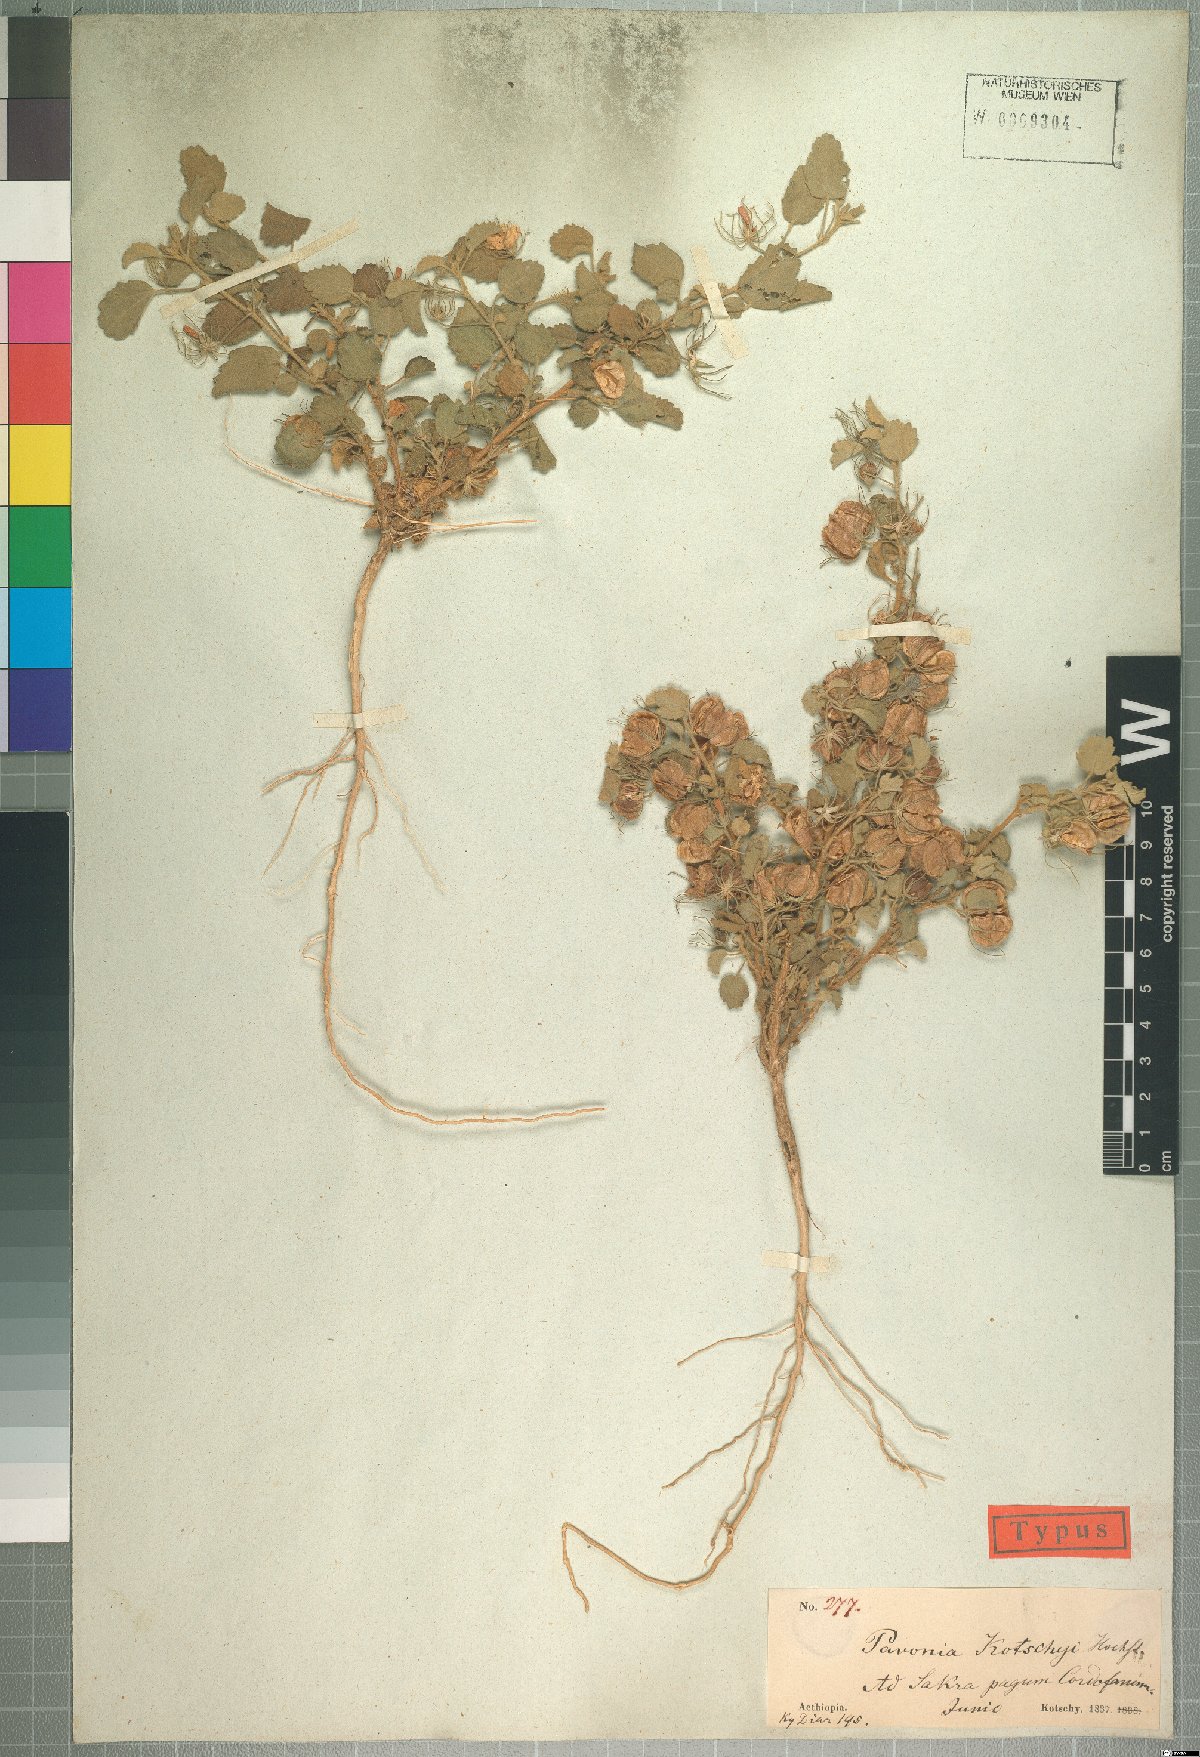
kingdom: Plantae
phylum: Tracheophyta
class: Magnoliopsida
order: Malvales
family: Malvaceae
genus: Pavonia
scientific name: Pavonia kotschyi
